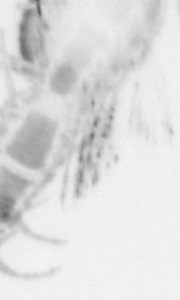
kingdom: Animalia
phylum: Annelida
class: Polychaeta
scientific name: Polychaeta
